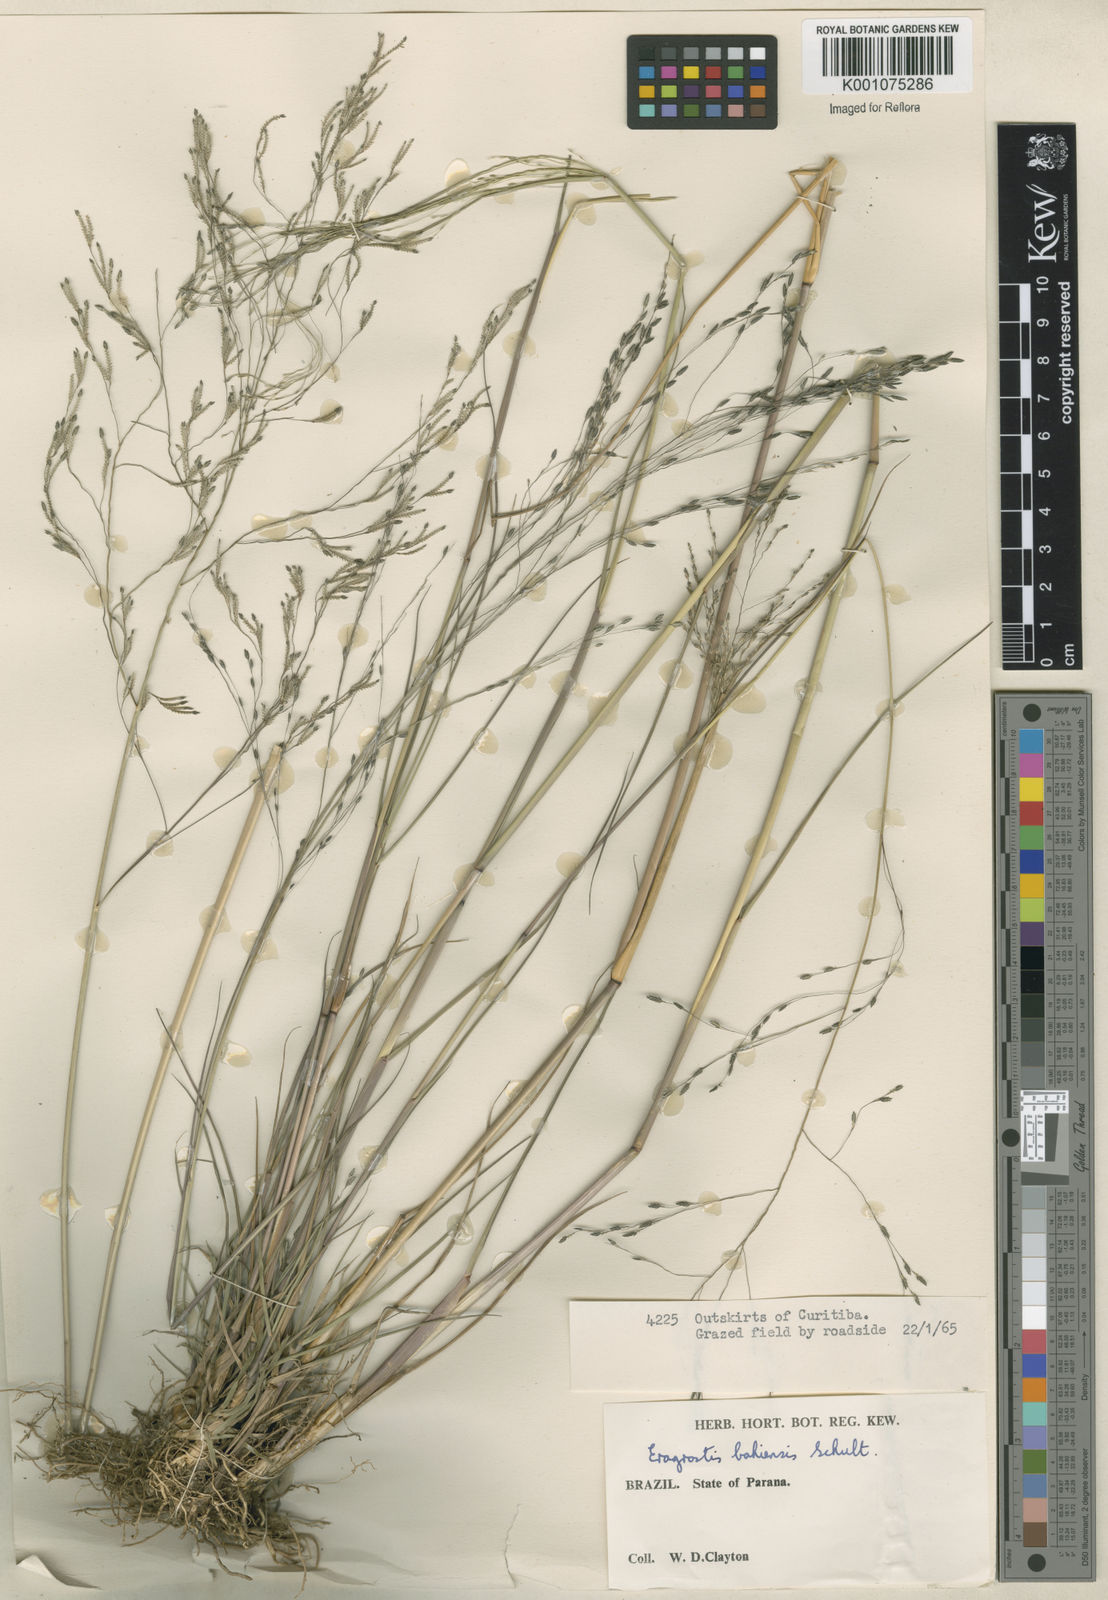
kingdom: Plantae
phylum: Tracheophyta
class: Liliopsida
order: Poales
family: Poaceae
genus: Eragrostis
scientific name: Eragrostis bahiensis
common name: Bahia lovegrass
